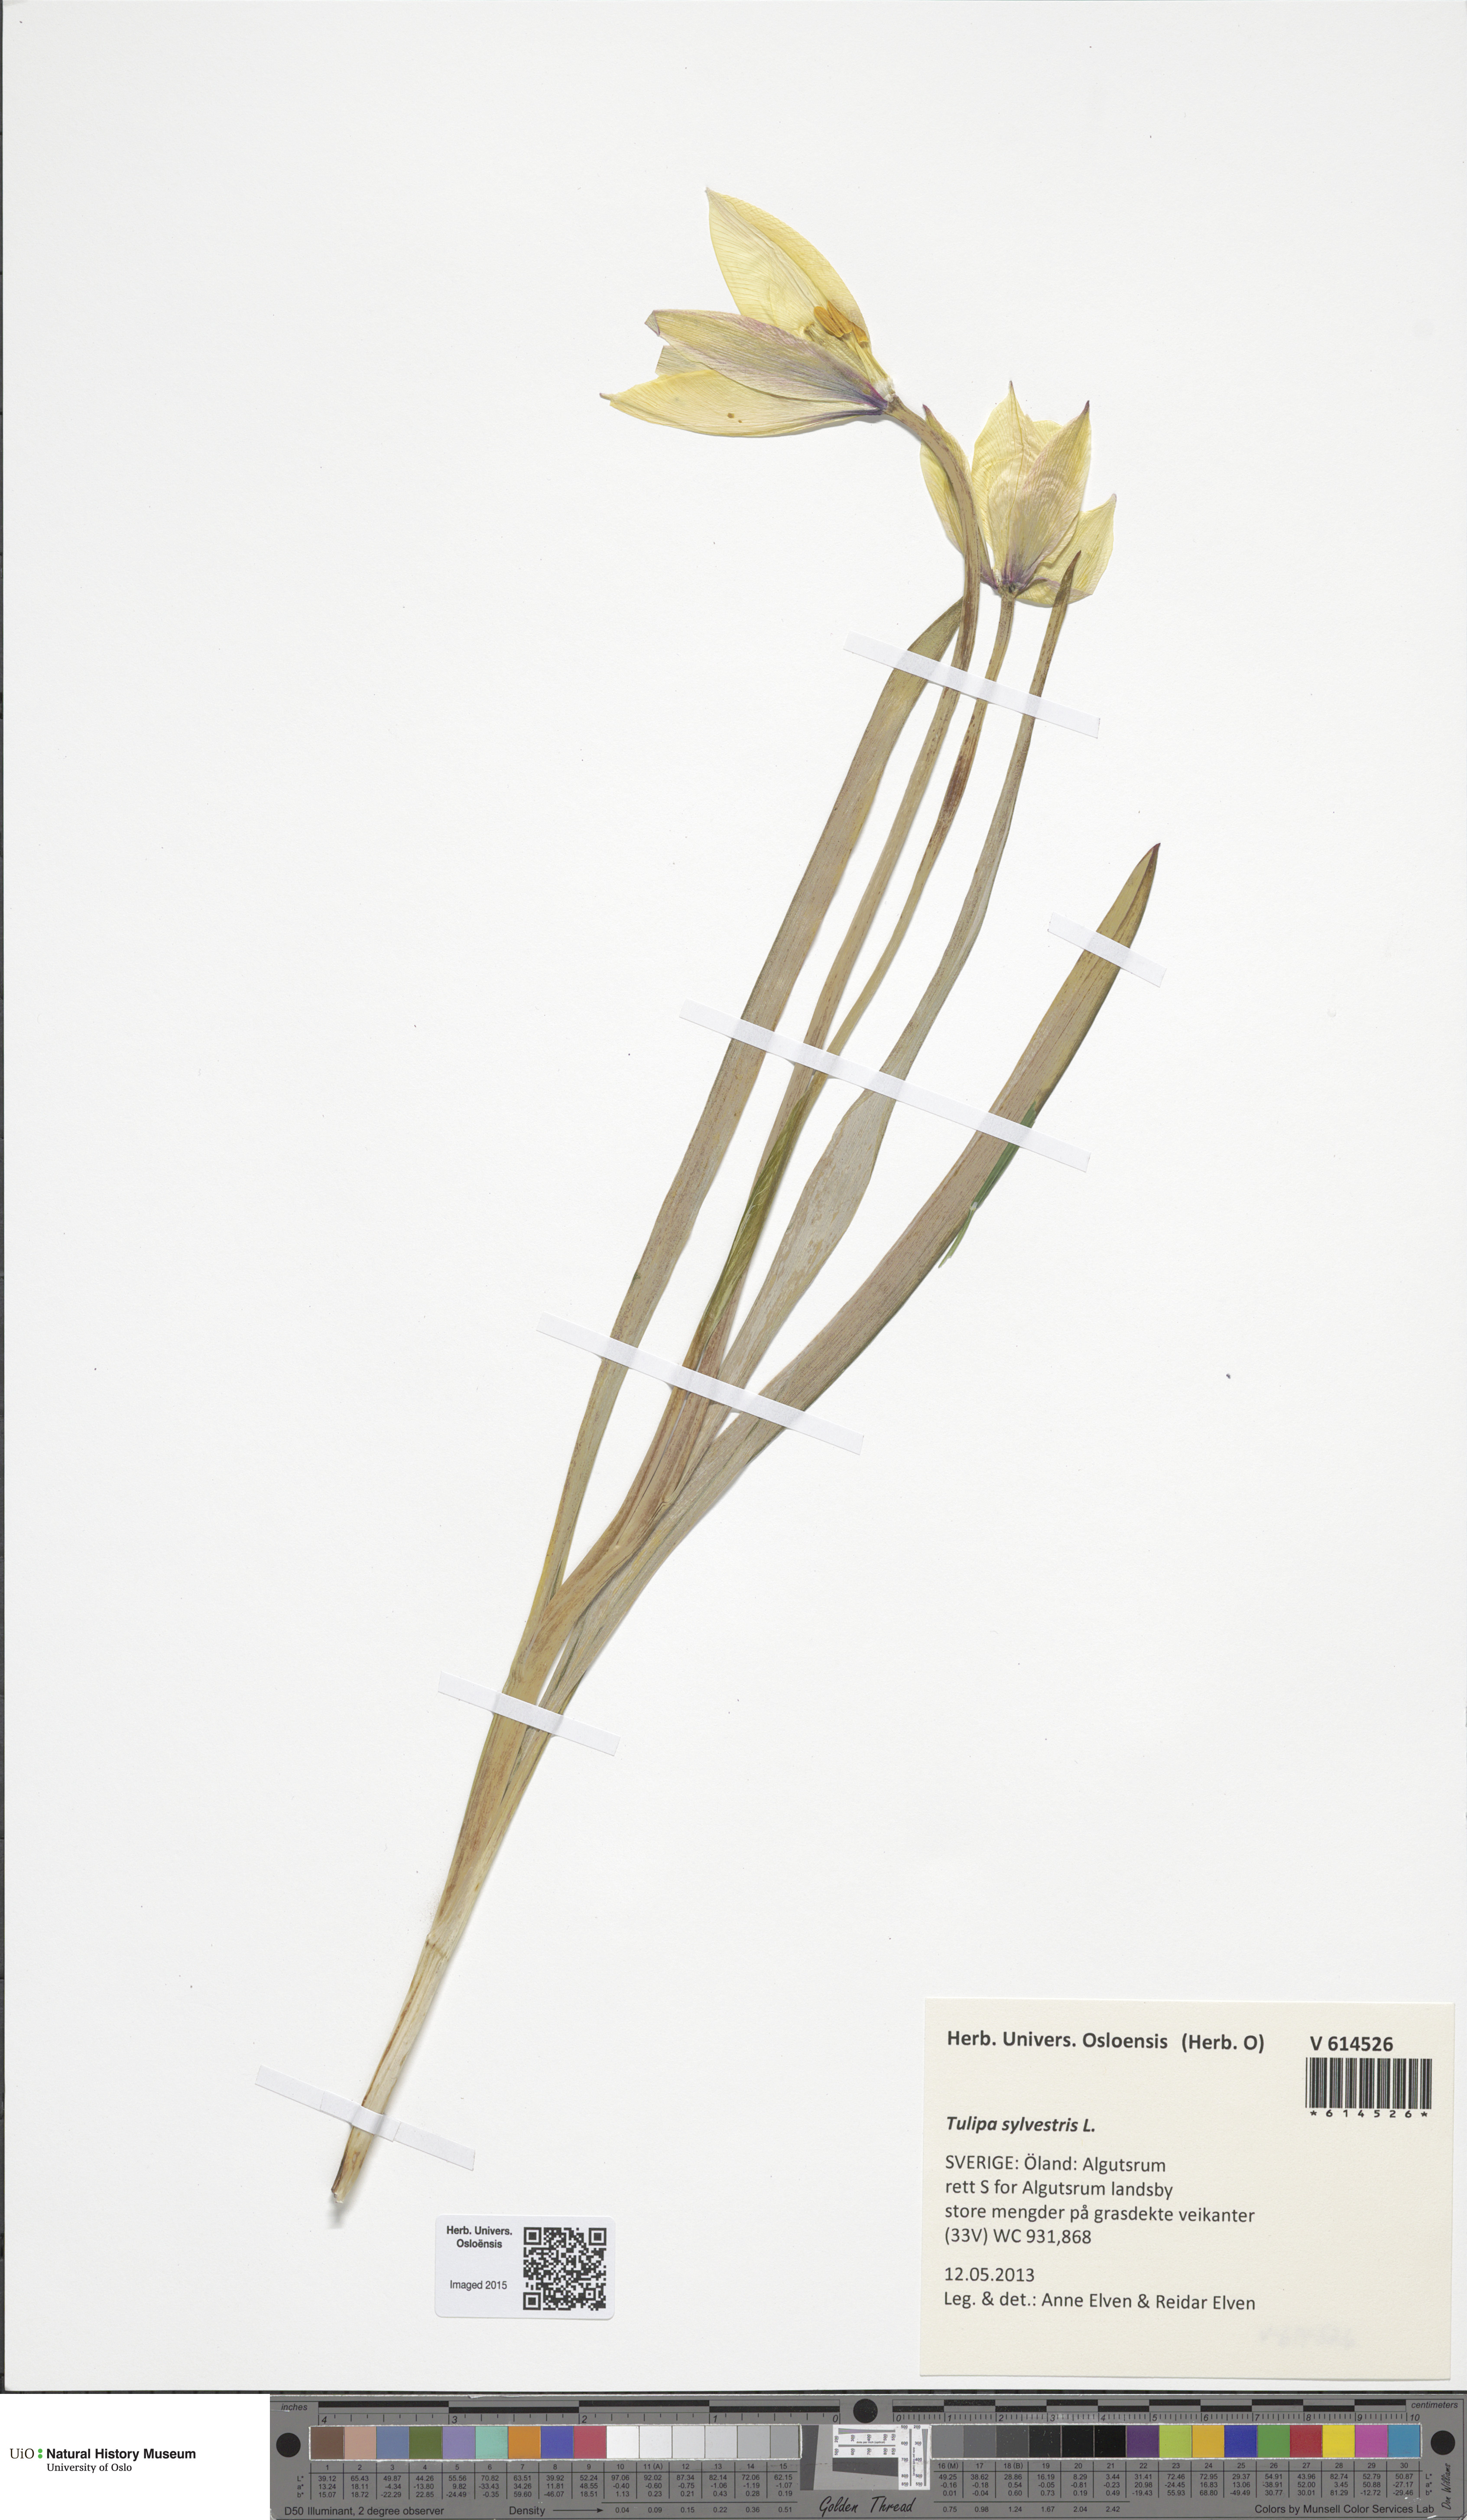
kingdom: Plantae
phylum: Tracheophyta
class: Liliopsida
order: Liliales
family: Liliaceae
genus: Tulipa
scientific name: Tulipa sylvestris
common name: Wild tulip
